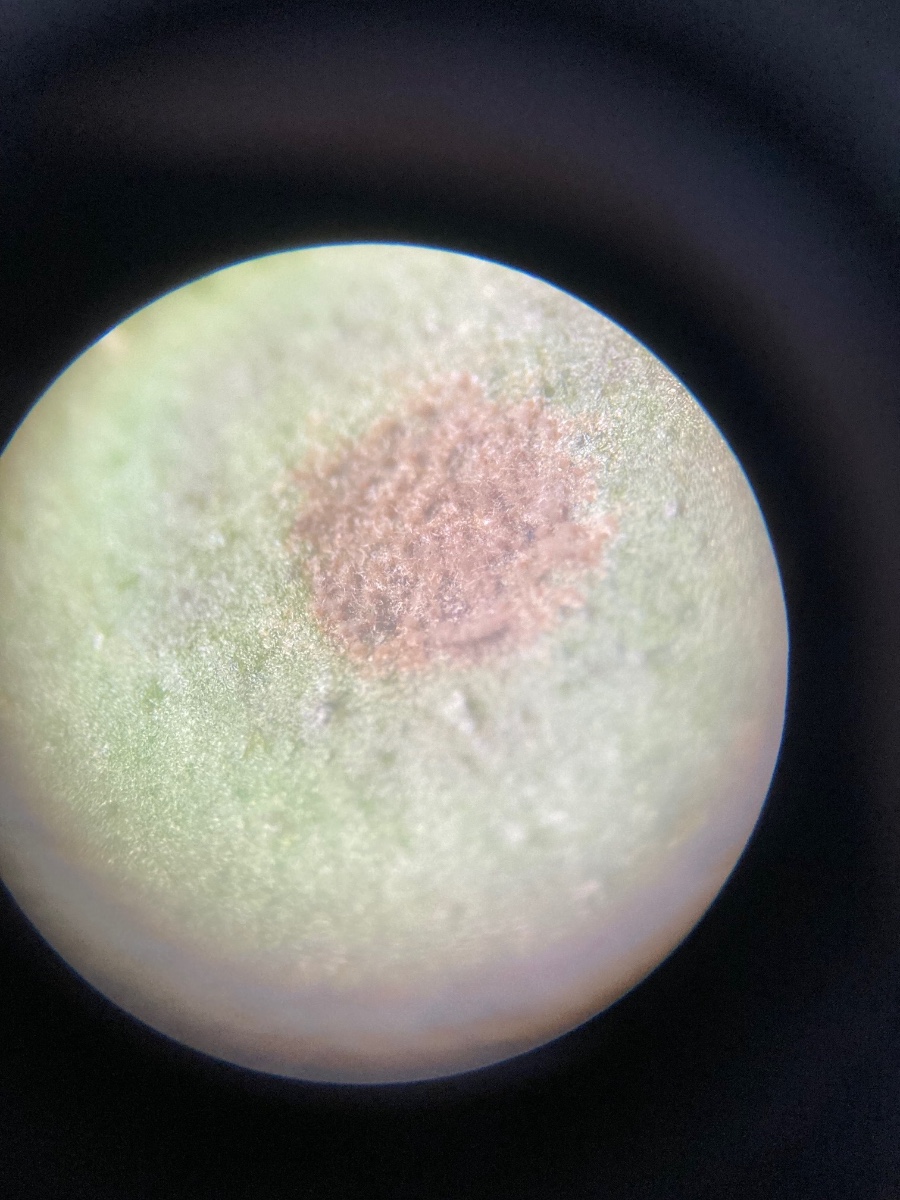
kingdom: Fungi
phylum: Ascomycota
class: Leotiomycetes
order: Helotiales
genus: Thedgonia
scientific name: Thedgonia ligustrina
